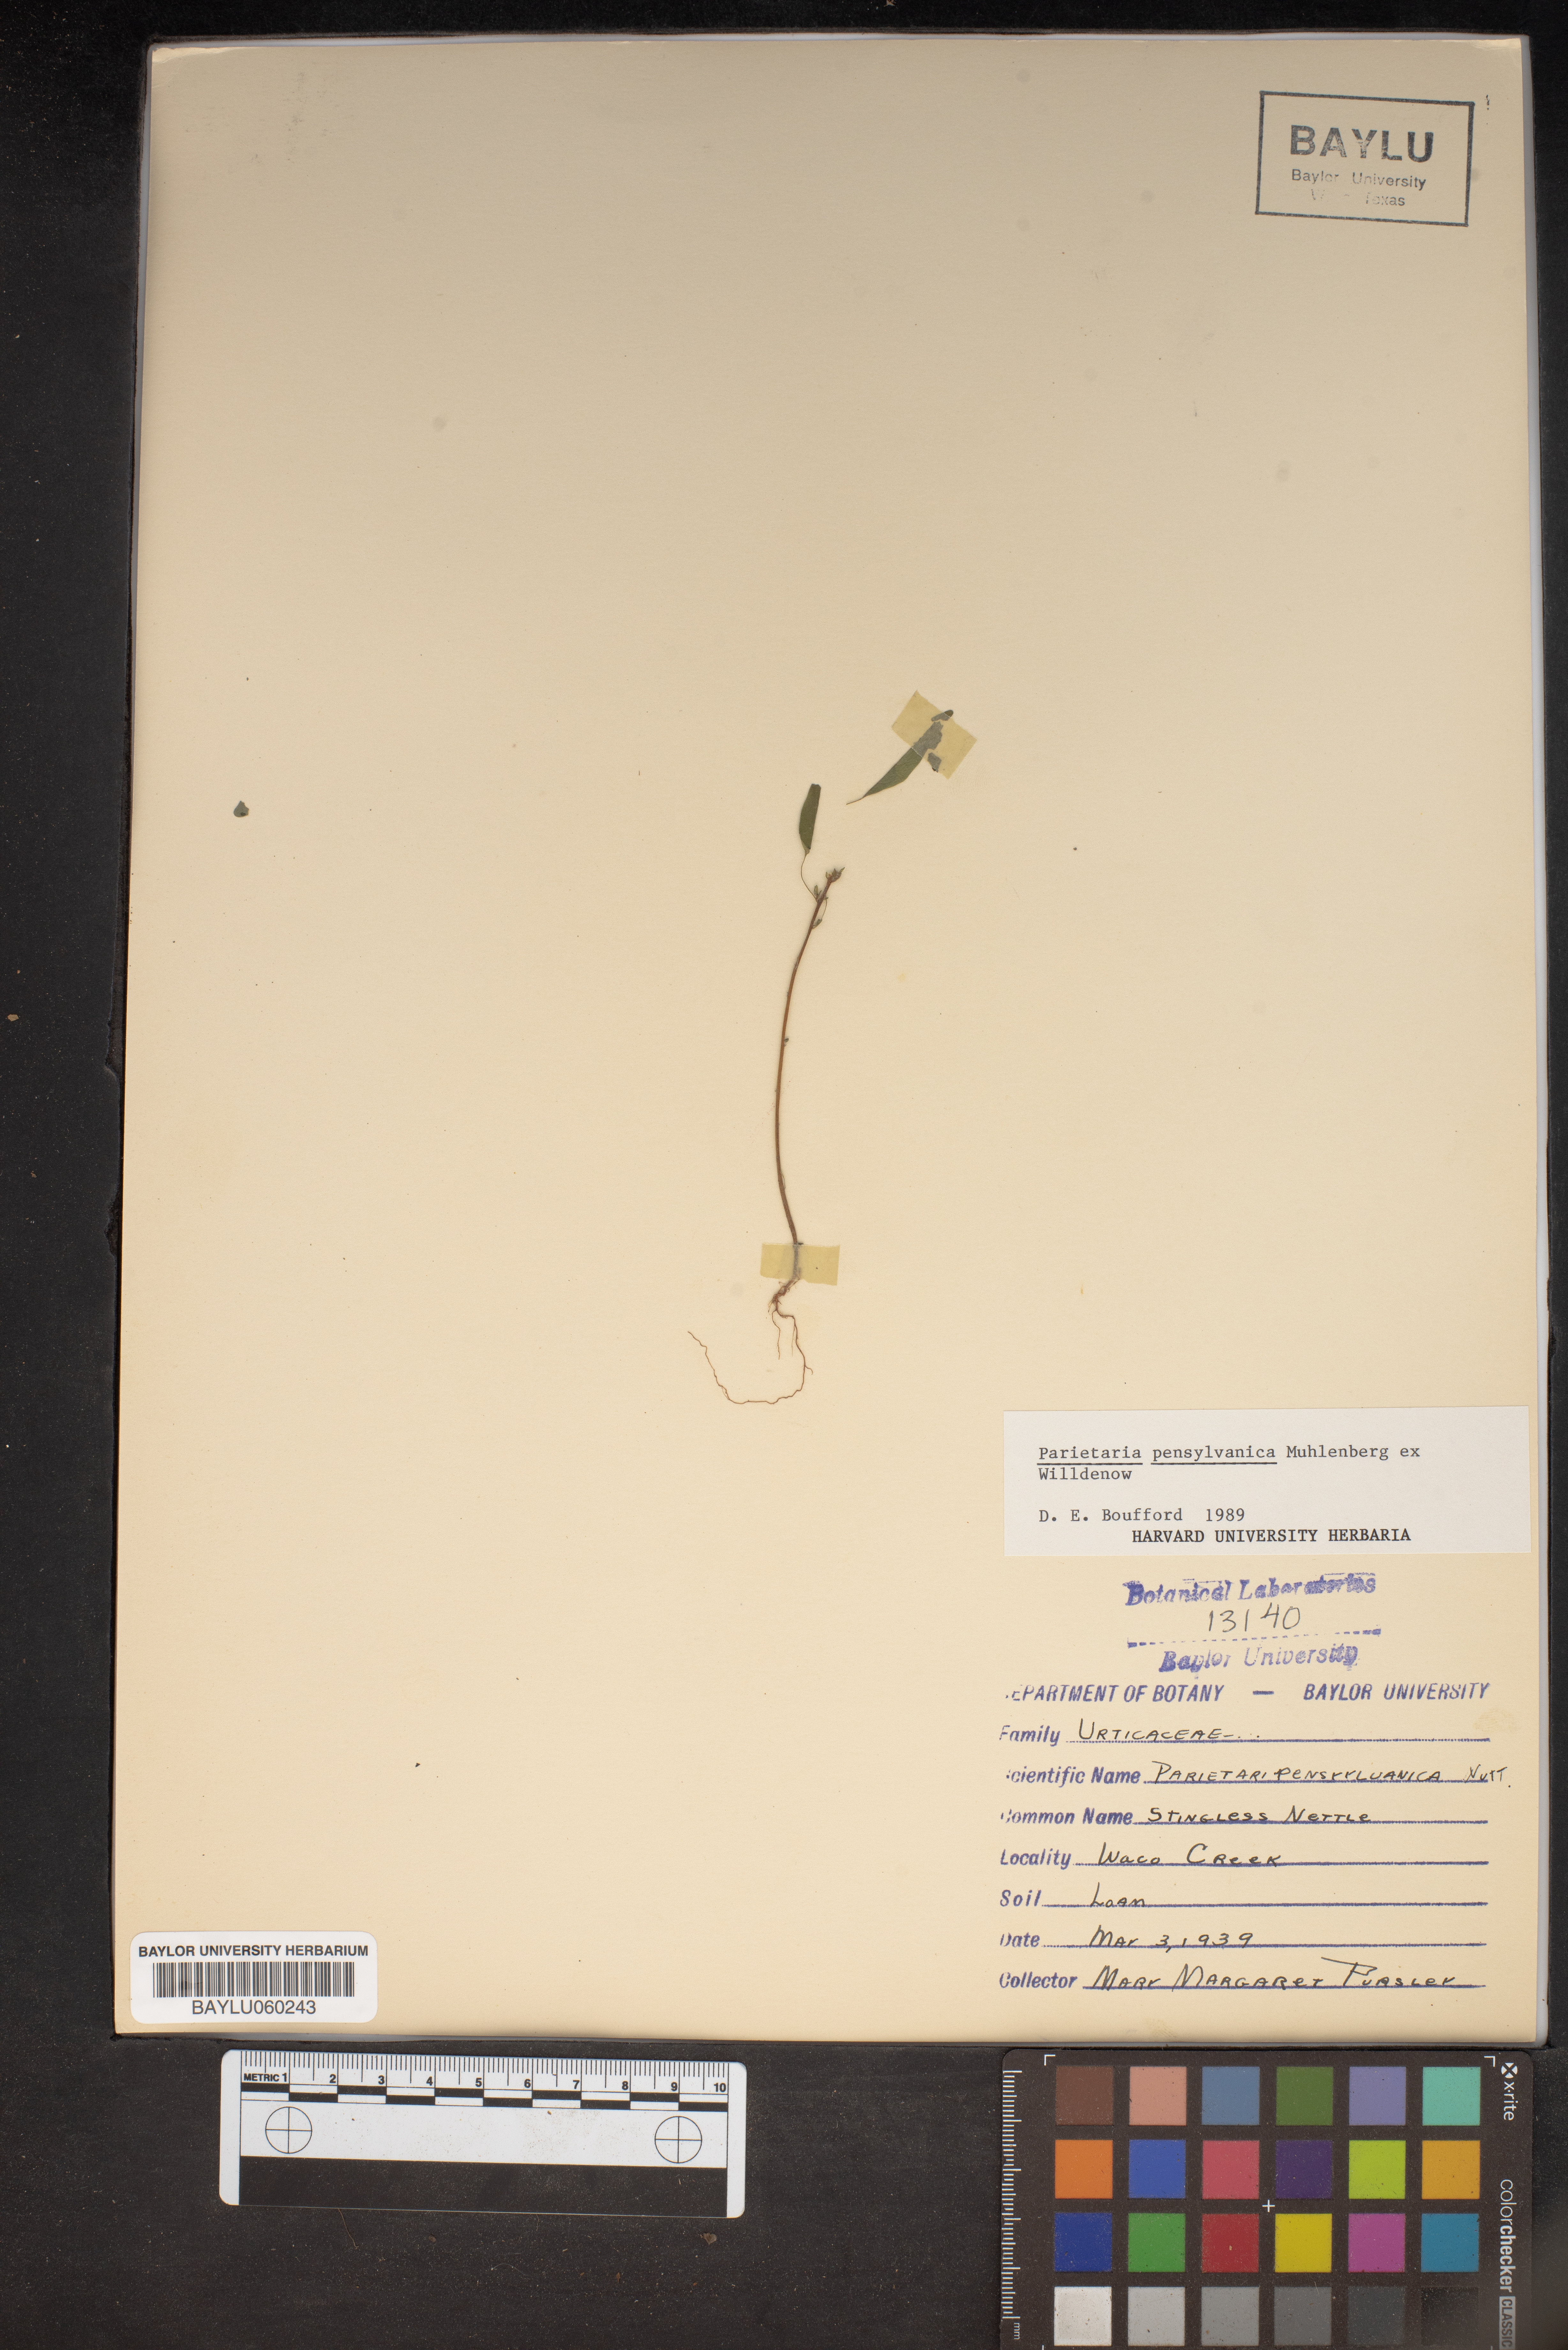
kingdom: Plantae
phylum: Tracheophyta
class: Magnoliopsida
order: Rosales
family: Urticaceae
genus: Parietaria
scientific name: Parietaria pensylvanica
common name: Pennsylvania pellitory
